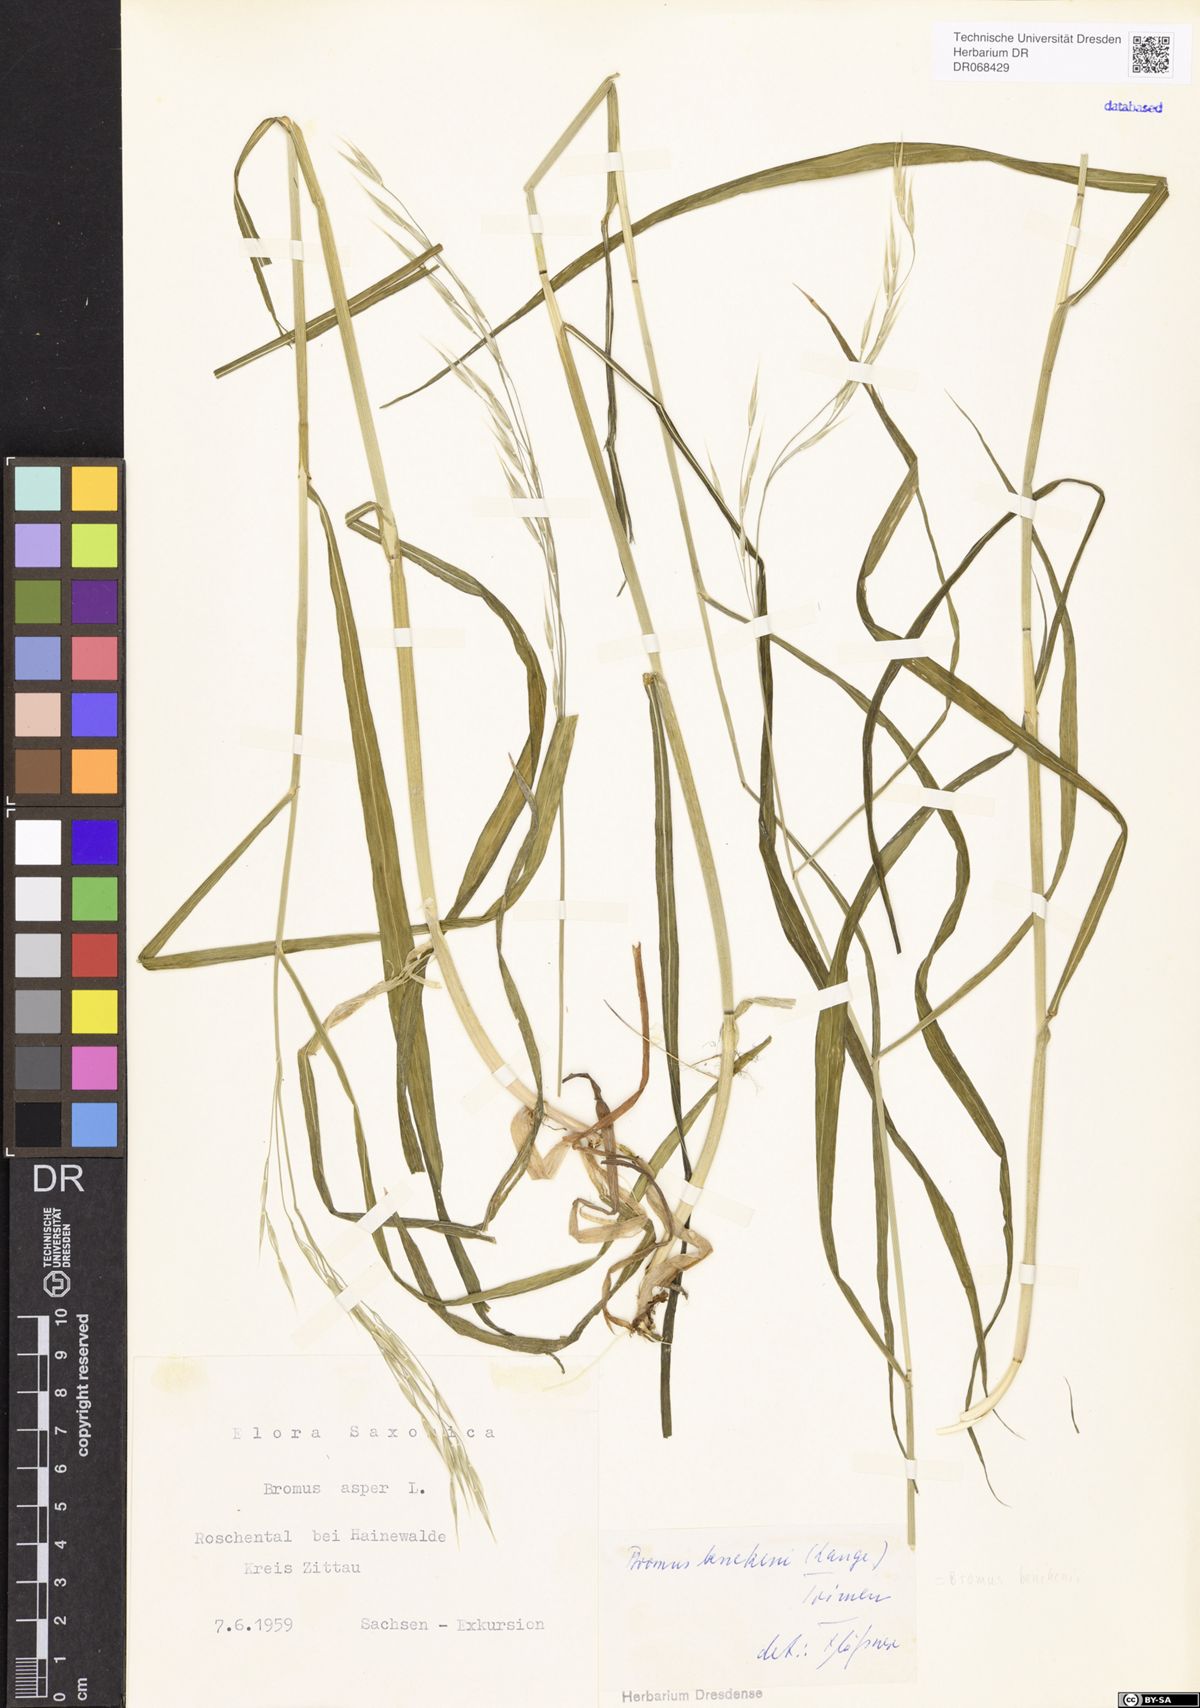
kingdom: Plantae
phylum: Tracheophyta
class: Liliopsida
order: Poales
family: Poaceae
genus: Bromus
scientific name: Bromus benekenii
